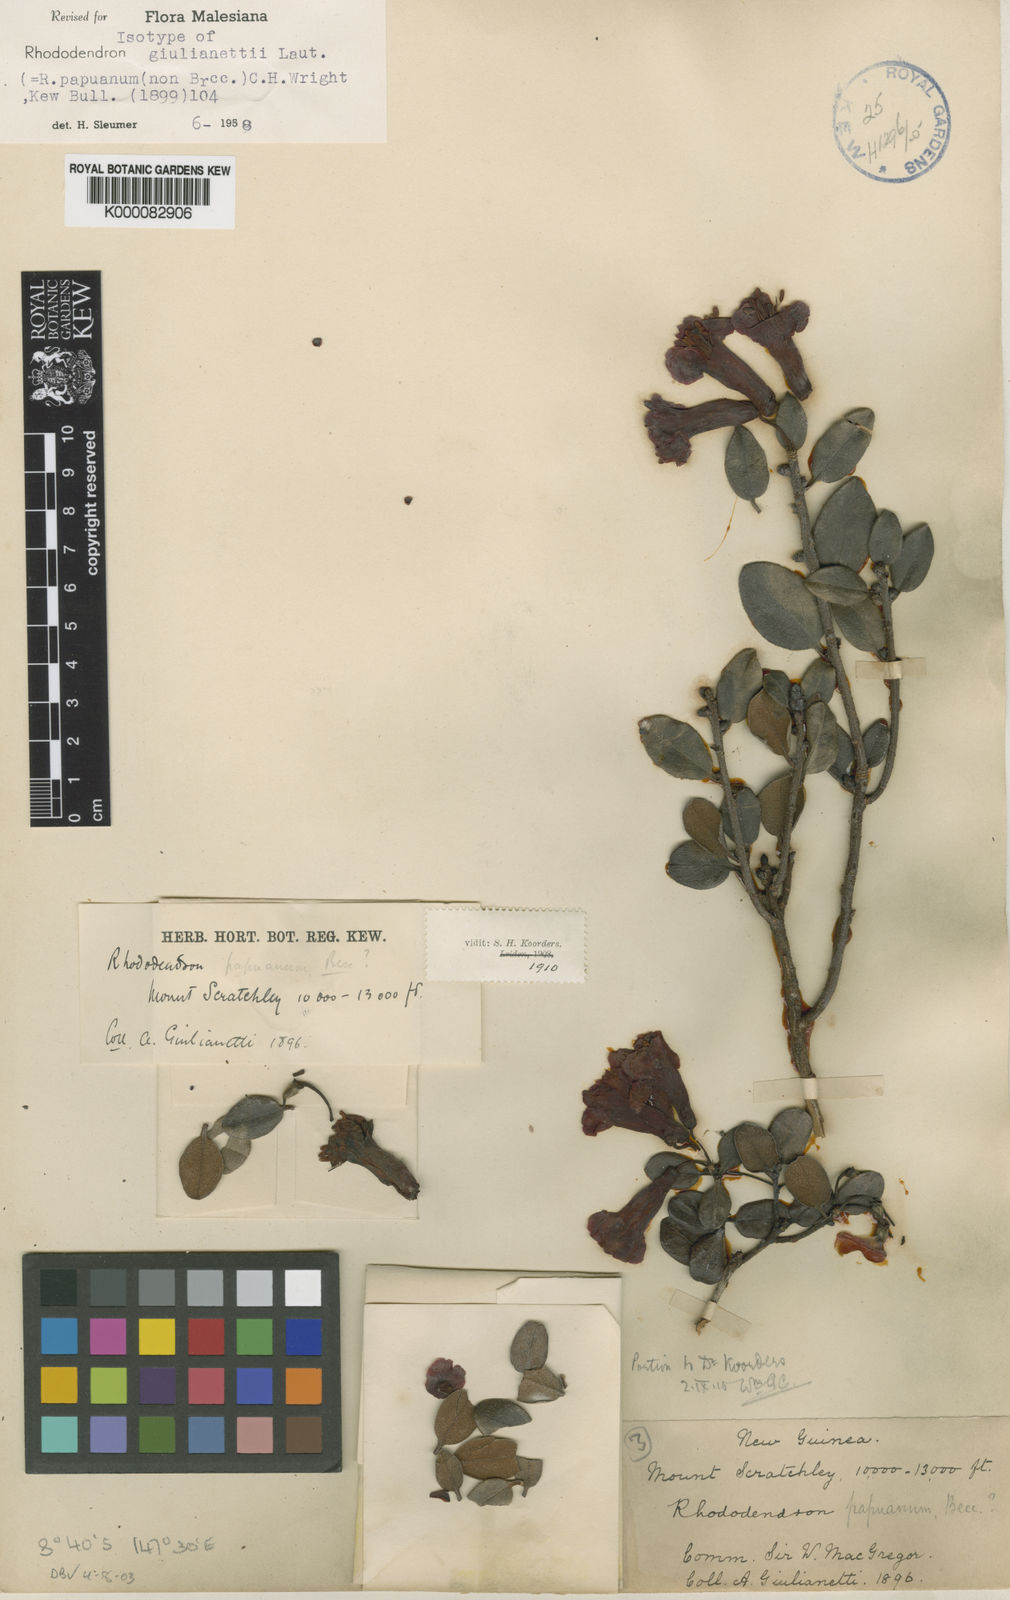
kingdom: Plantae
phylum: Tracheophyta
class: Magnoliopsida
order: Ericales
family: Ericaceae
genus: Rhododendron
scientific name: Rhododendron giulianettii
